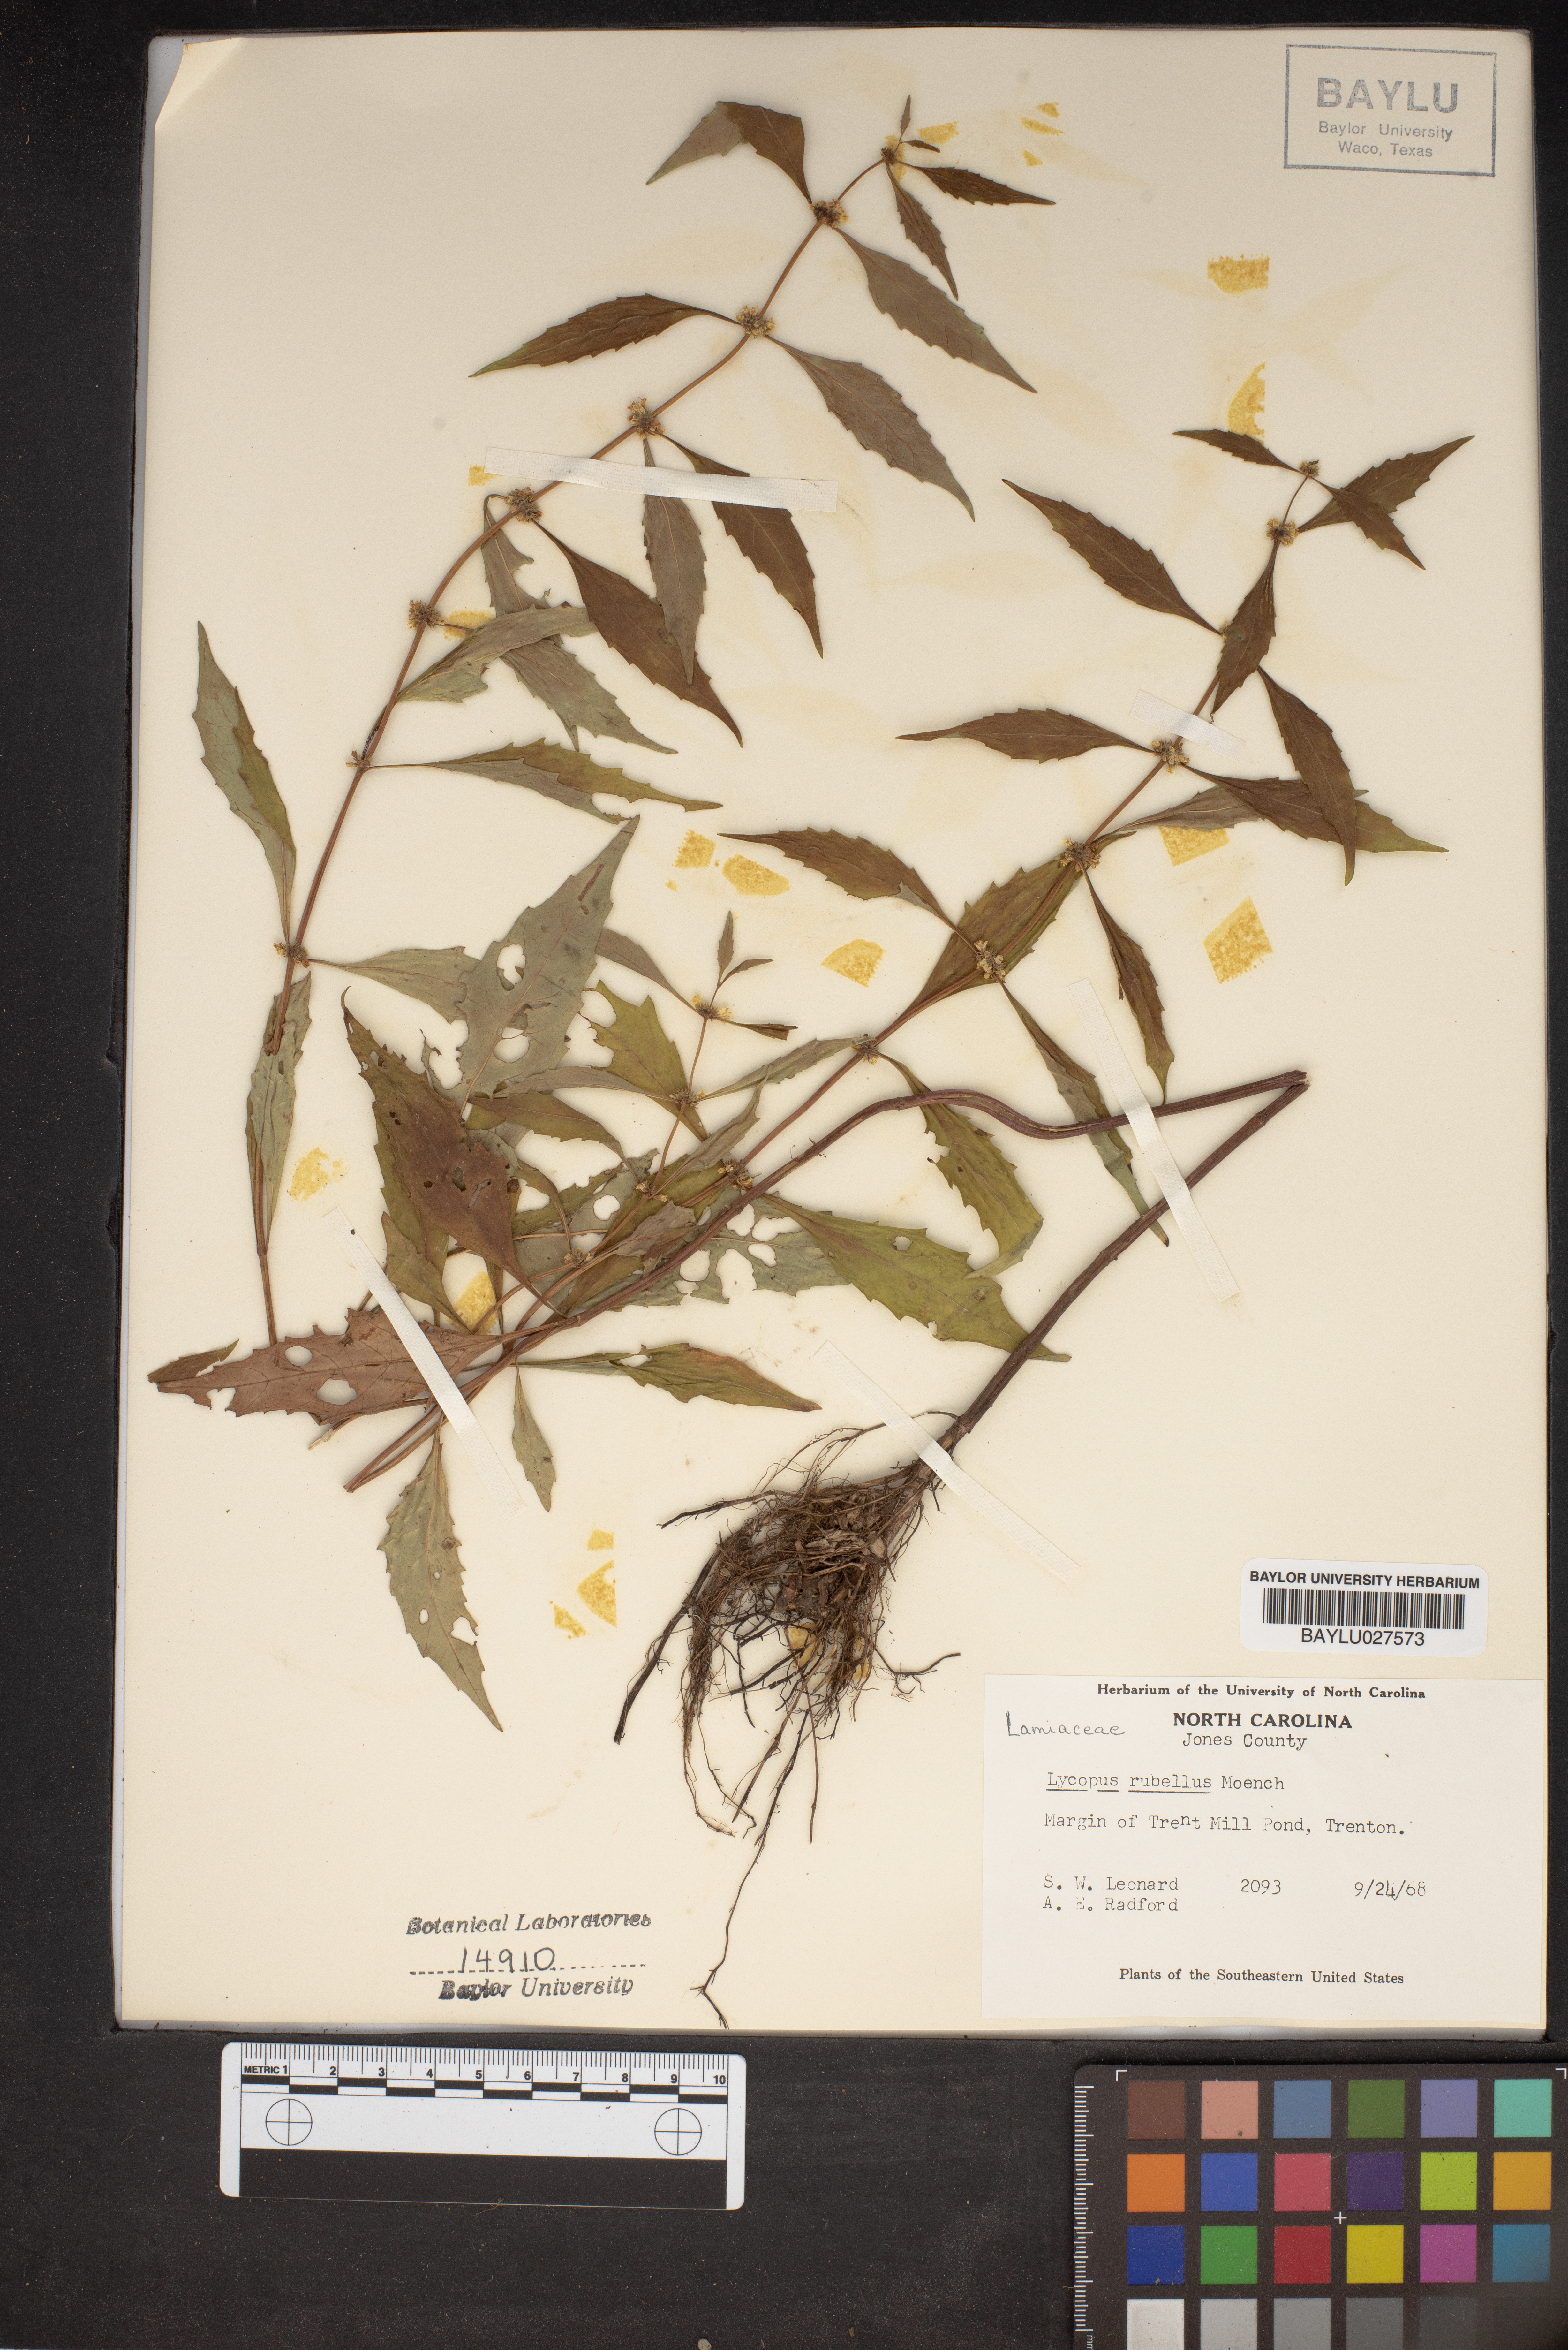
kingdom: Plantae
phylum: Tracheophyta
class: Magnoliopsida
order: Lamiales
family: Lamiaceae
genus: Lycopus
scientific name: Lycopus rubellus
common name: Stalked bugleweed
